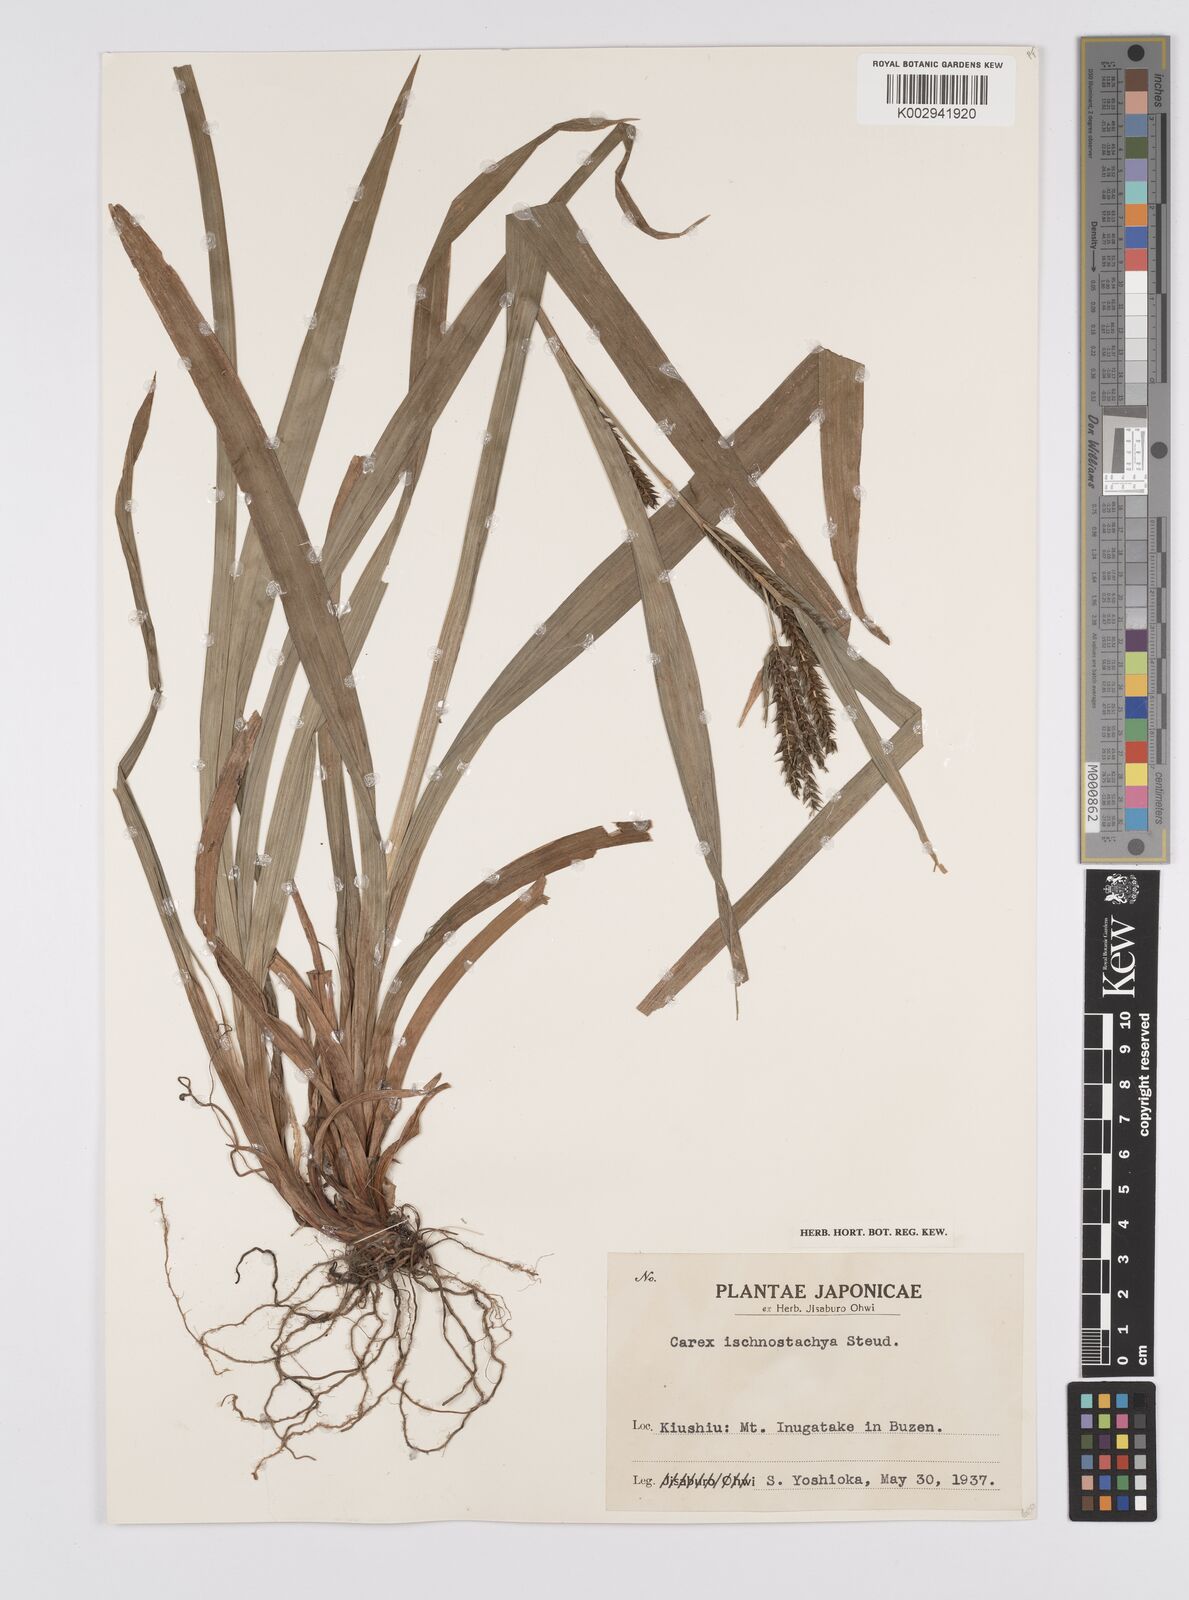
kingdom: Plantae
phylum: Tracheophyta
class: Liliopsida
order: Poales
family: Cyperaceae
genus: Carex
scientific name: Carex ischnostachya
